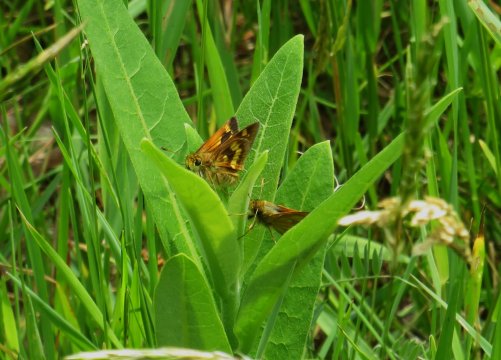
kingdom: Animalia
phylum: Arthropoda
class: Insecta
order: Lepidoptera
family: Hesperiidae
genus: Polites
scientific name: Polites
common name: Long Dash Skipper
